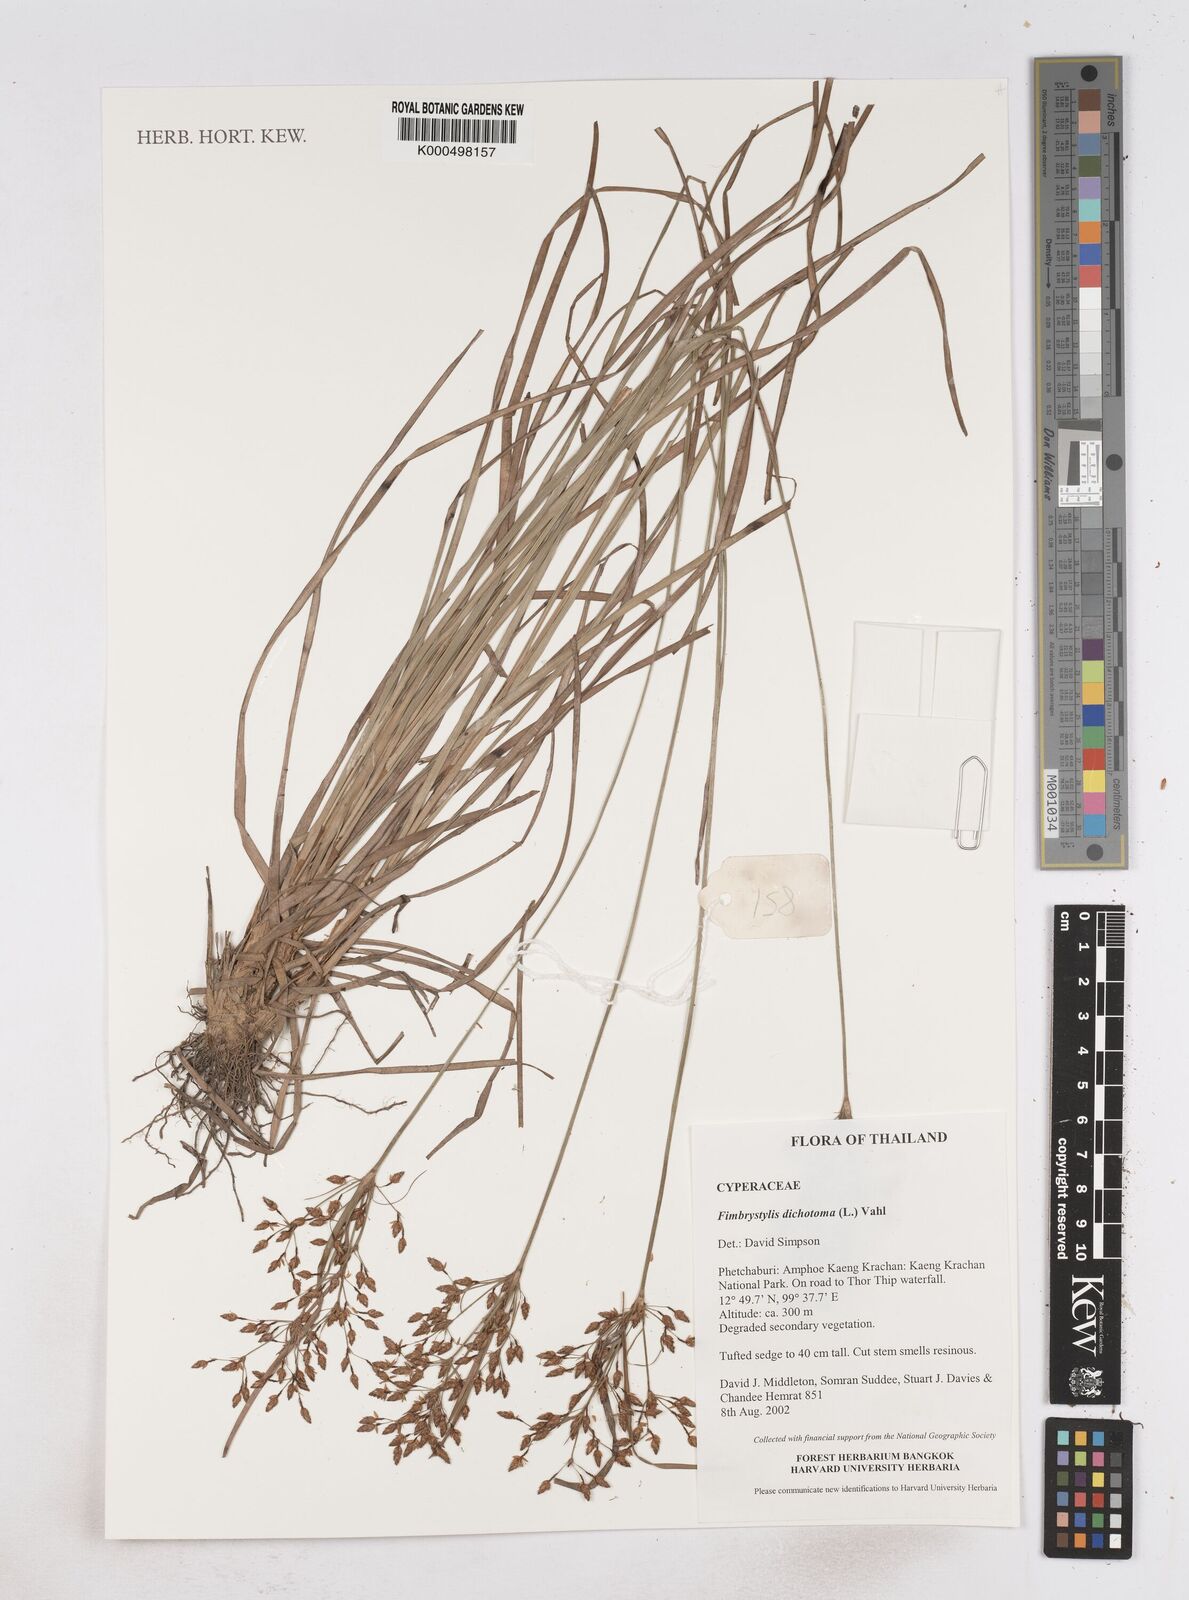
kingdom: Plantae
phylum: Tracheophyta
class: Liliopsida
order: Poales
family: Cyperaceae
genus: Fimbristylis
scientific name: Fimbristylis dichotoma
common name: Forked fimbry
